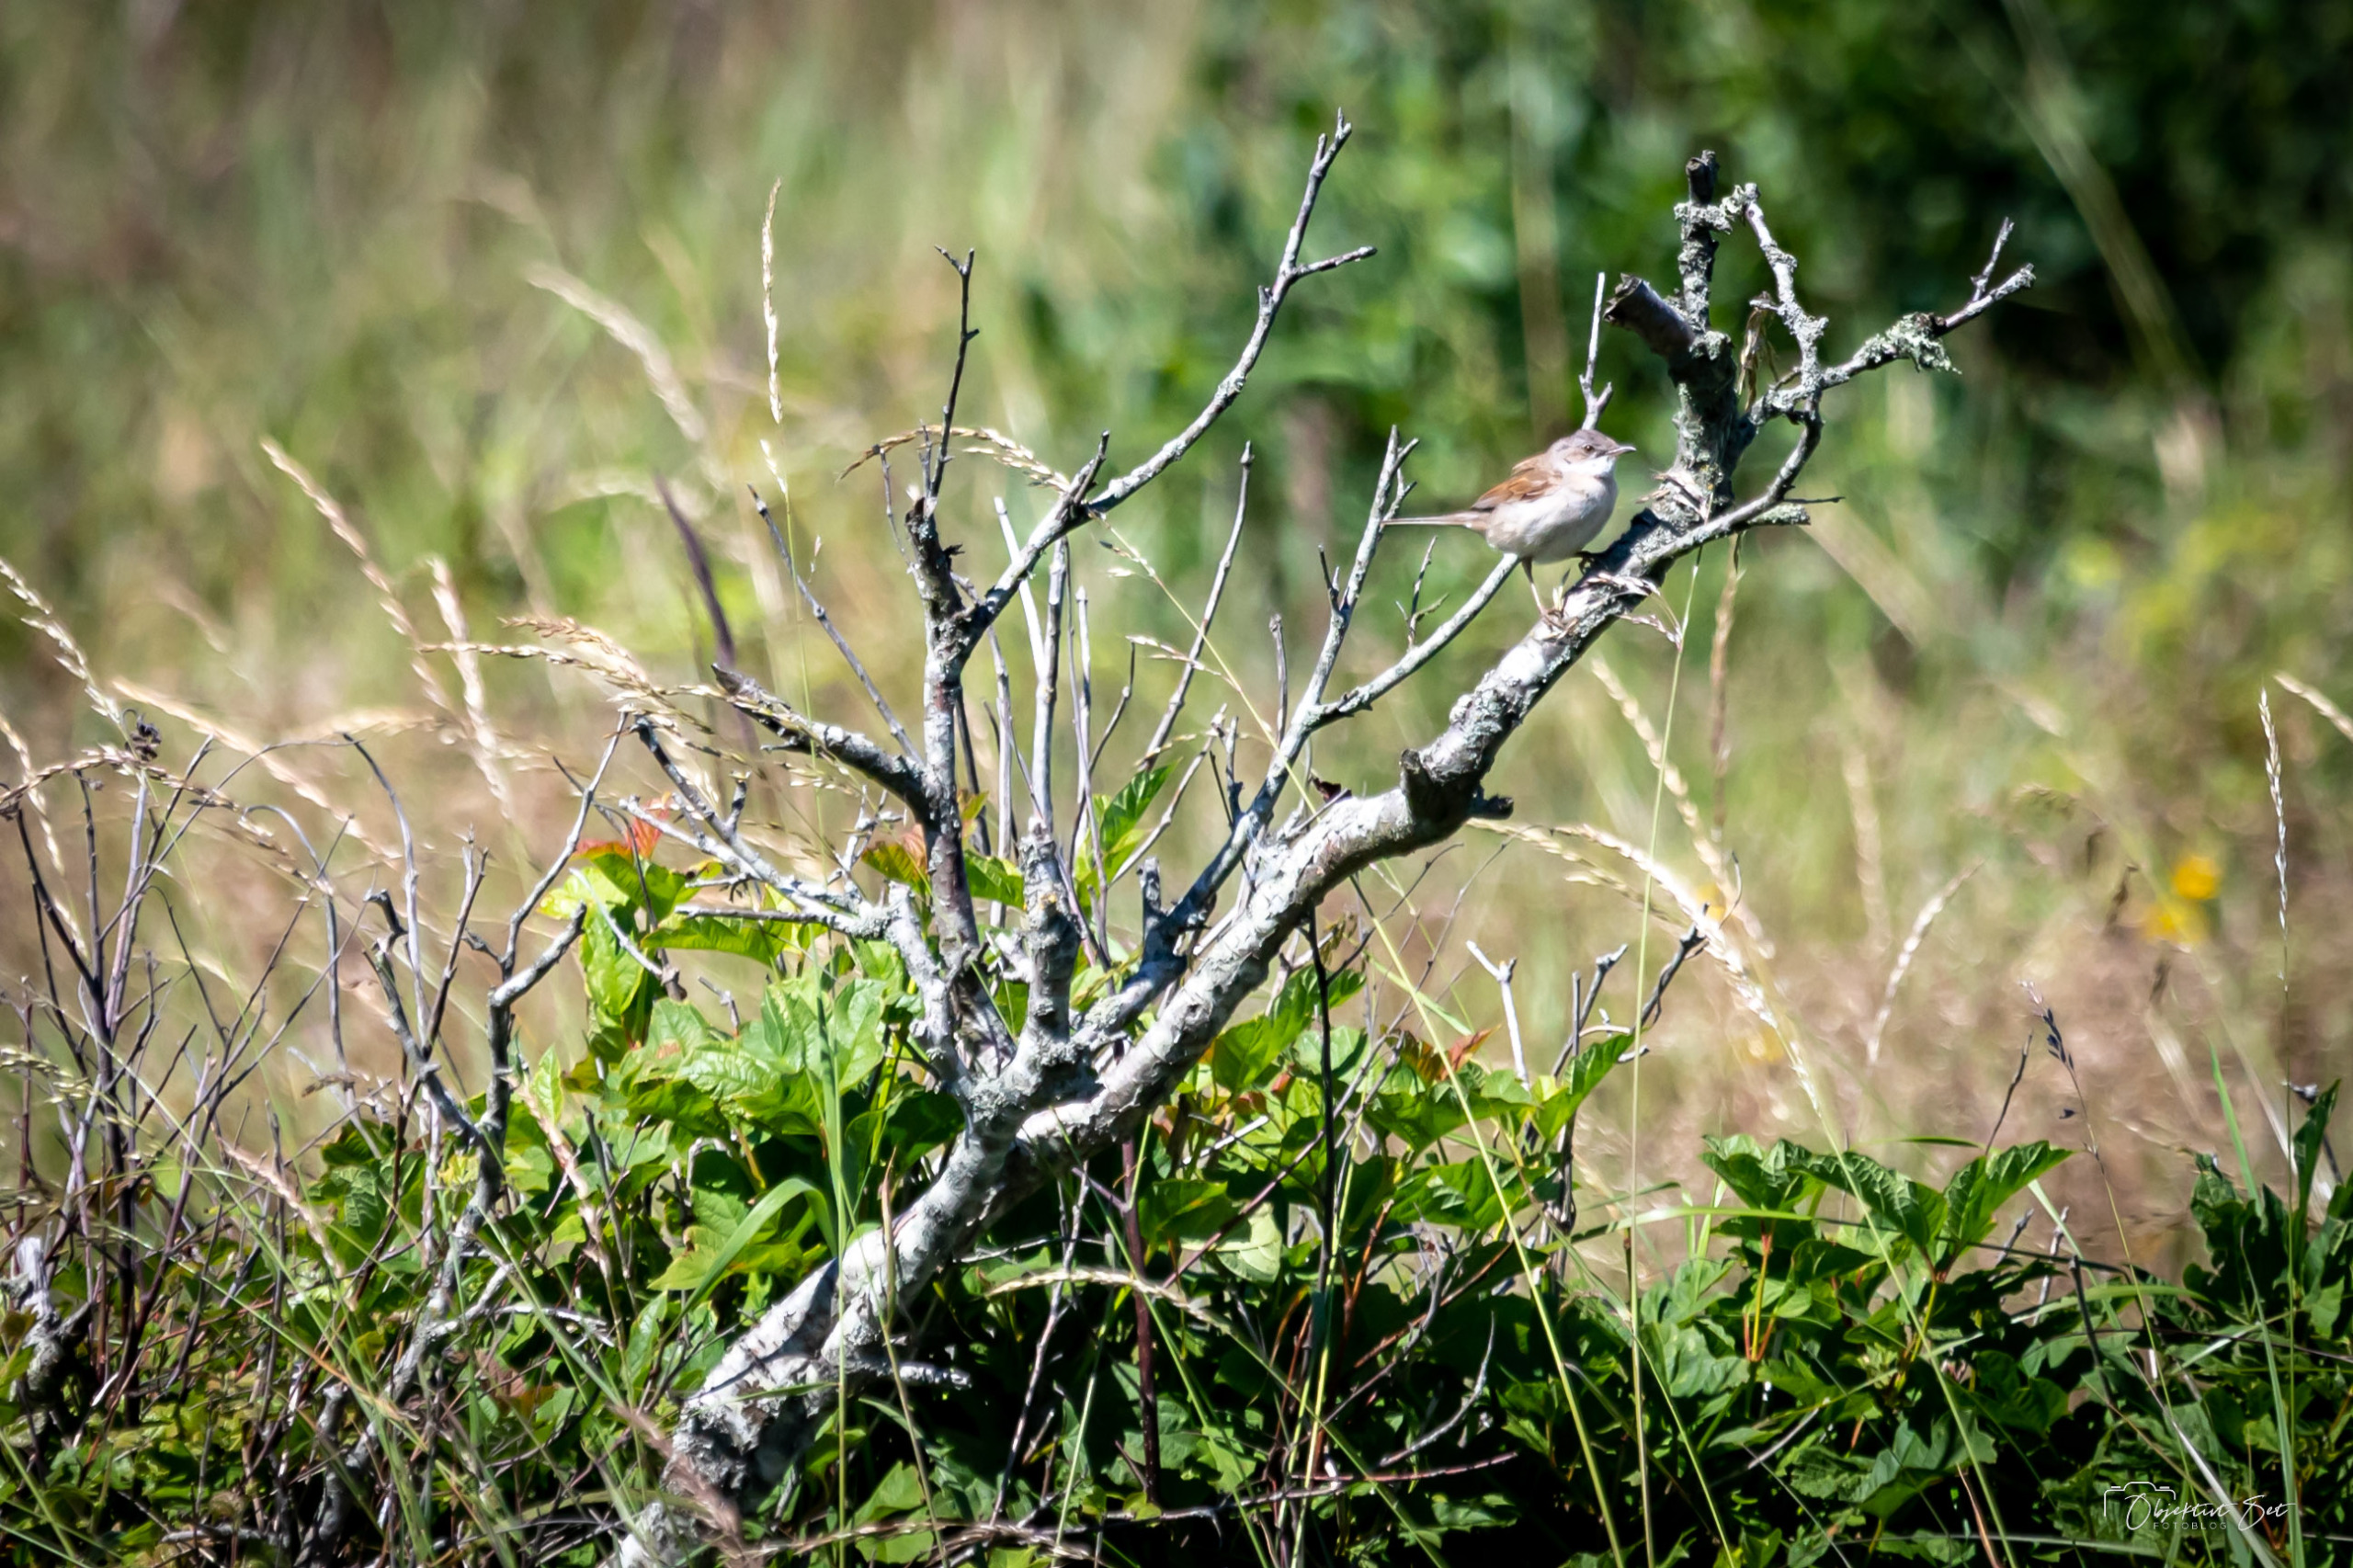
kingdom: Animalia
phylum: Chordata
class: Aves
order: Passeriformes
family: Sylviidae
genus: Sylvia
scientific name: Sylvia communis
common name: Tornsanger
